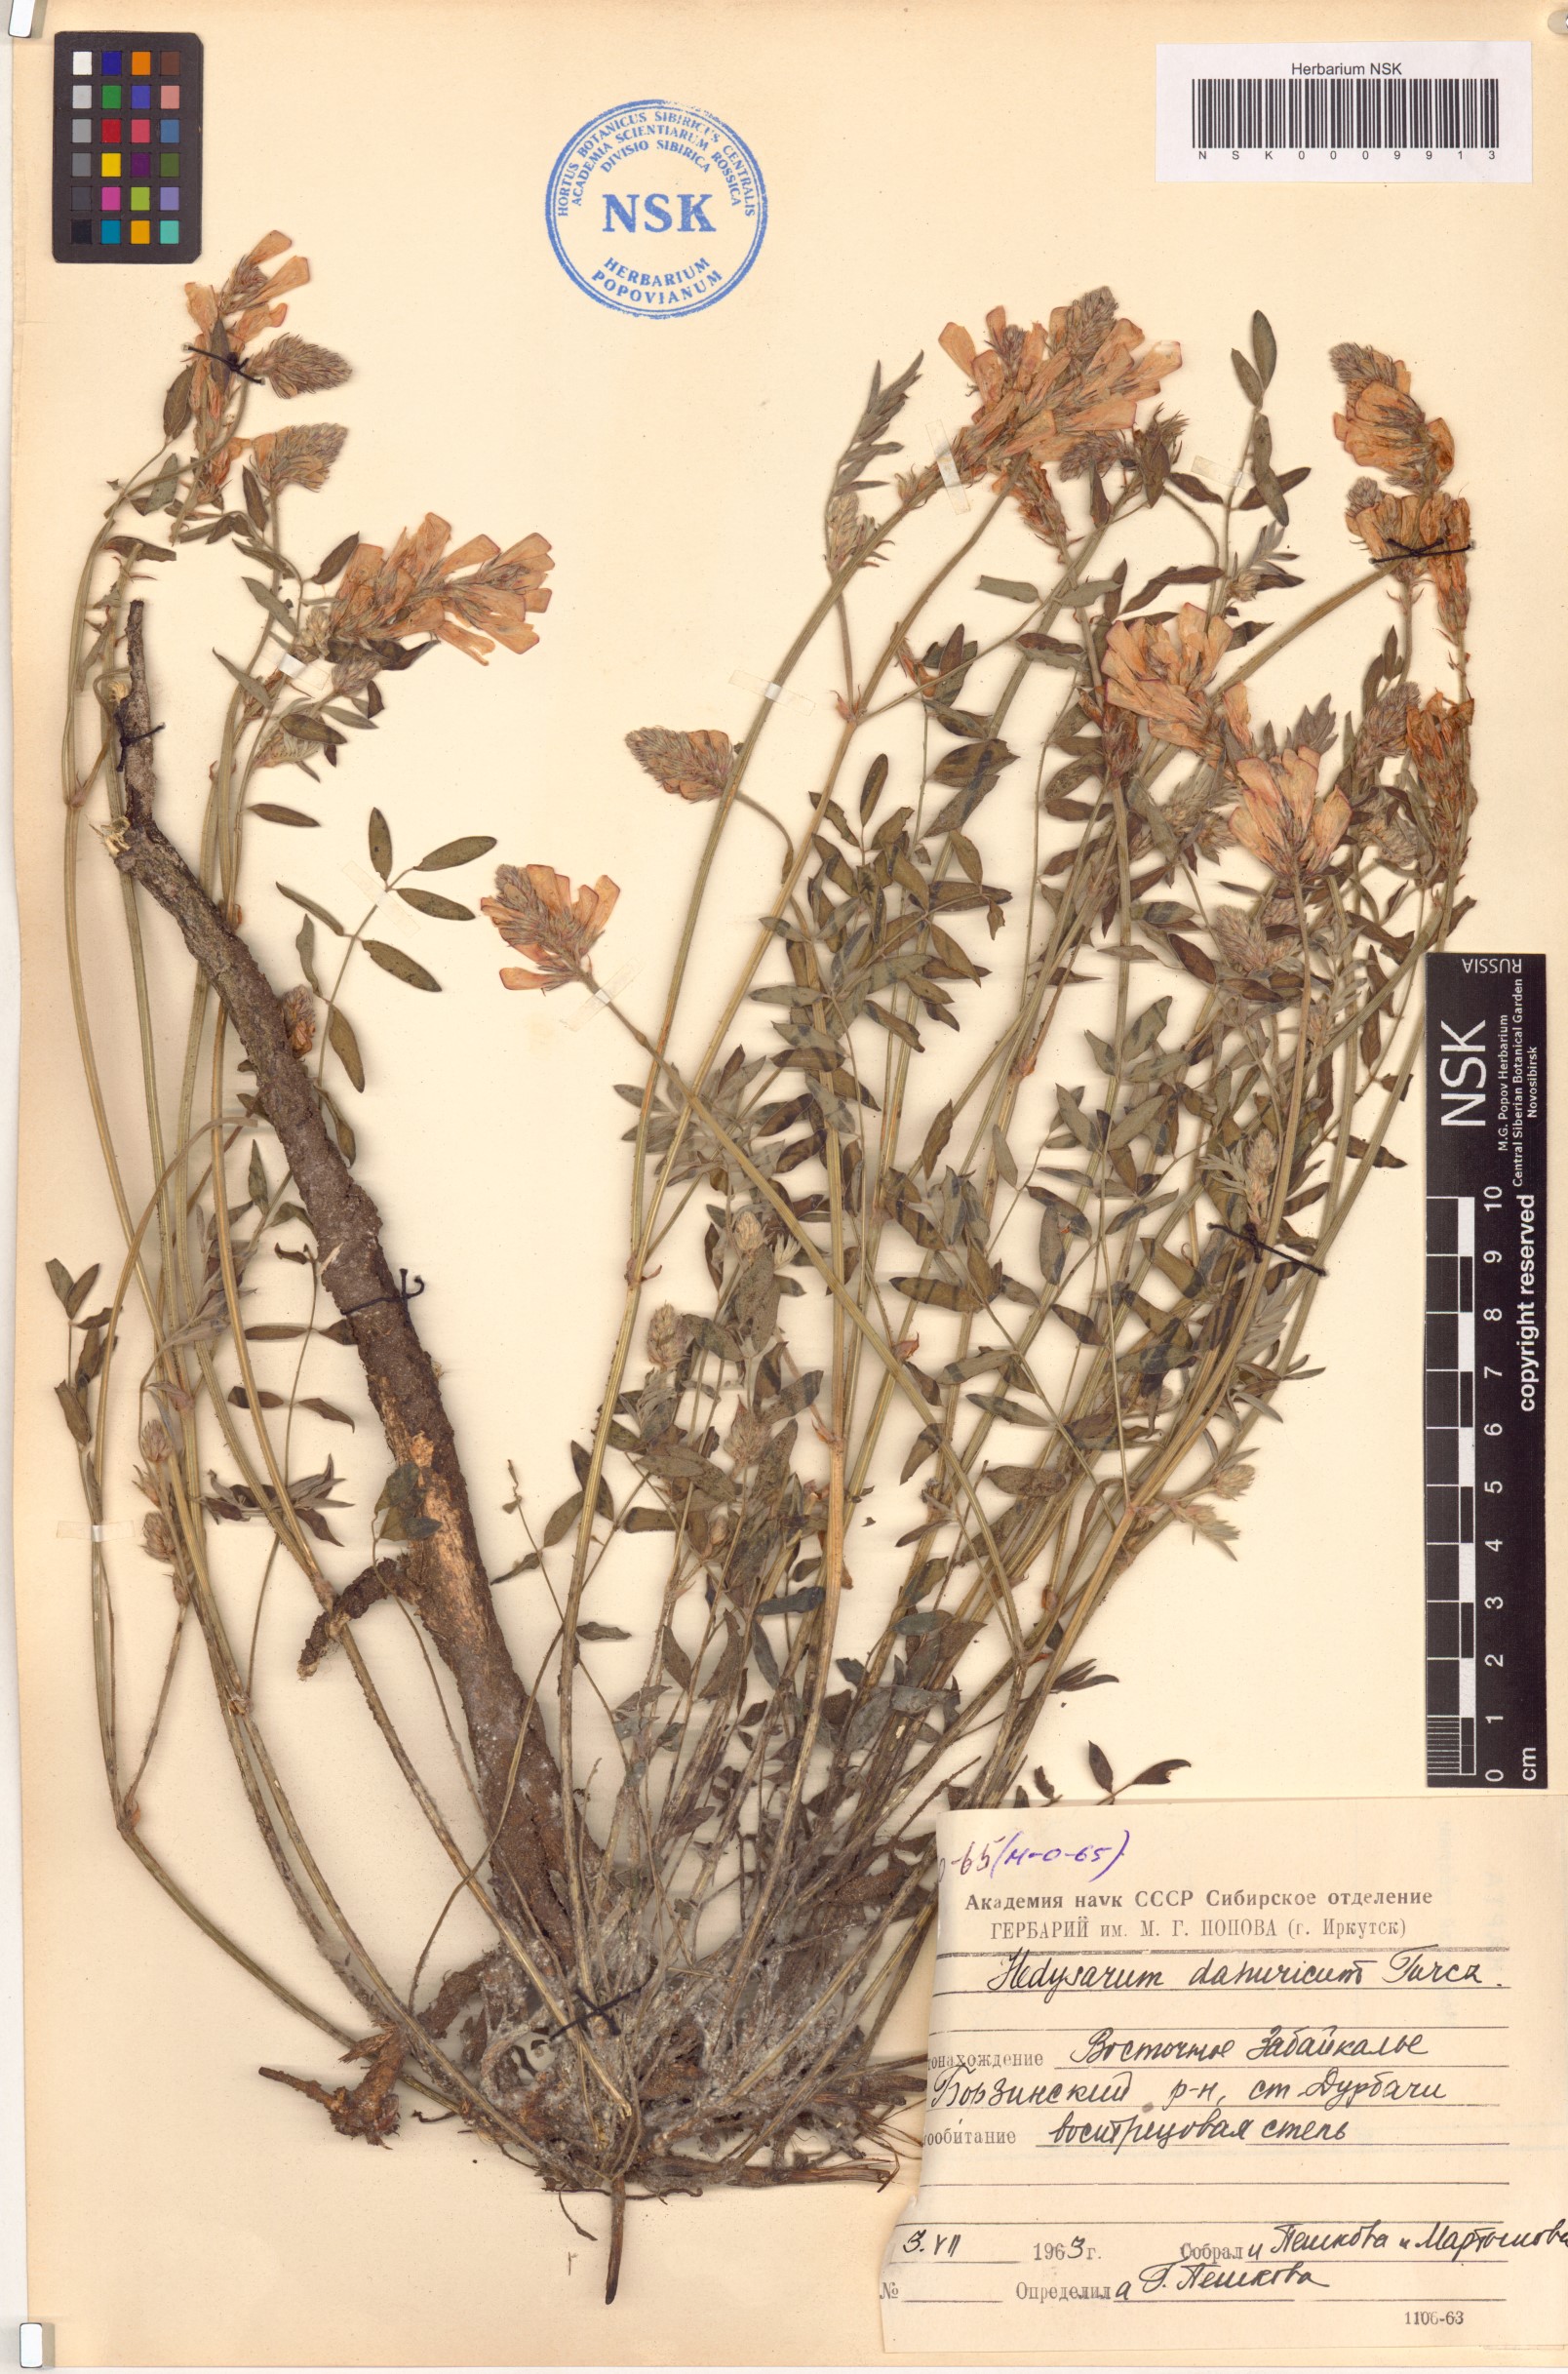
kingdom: Plantae
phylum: Tracheophyta
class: Magnoliopsida
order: Fabales
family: Fabaceae
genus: Hedysarum
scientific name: Hedysarum dahuricum
